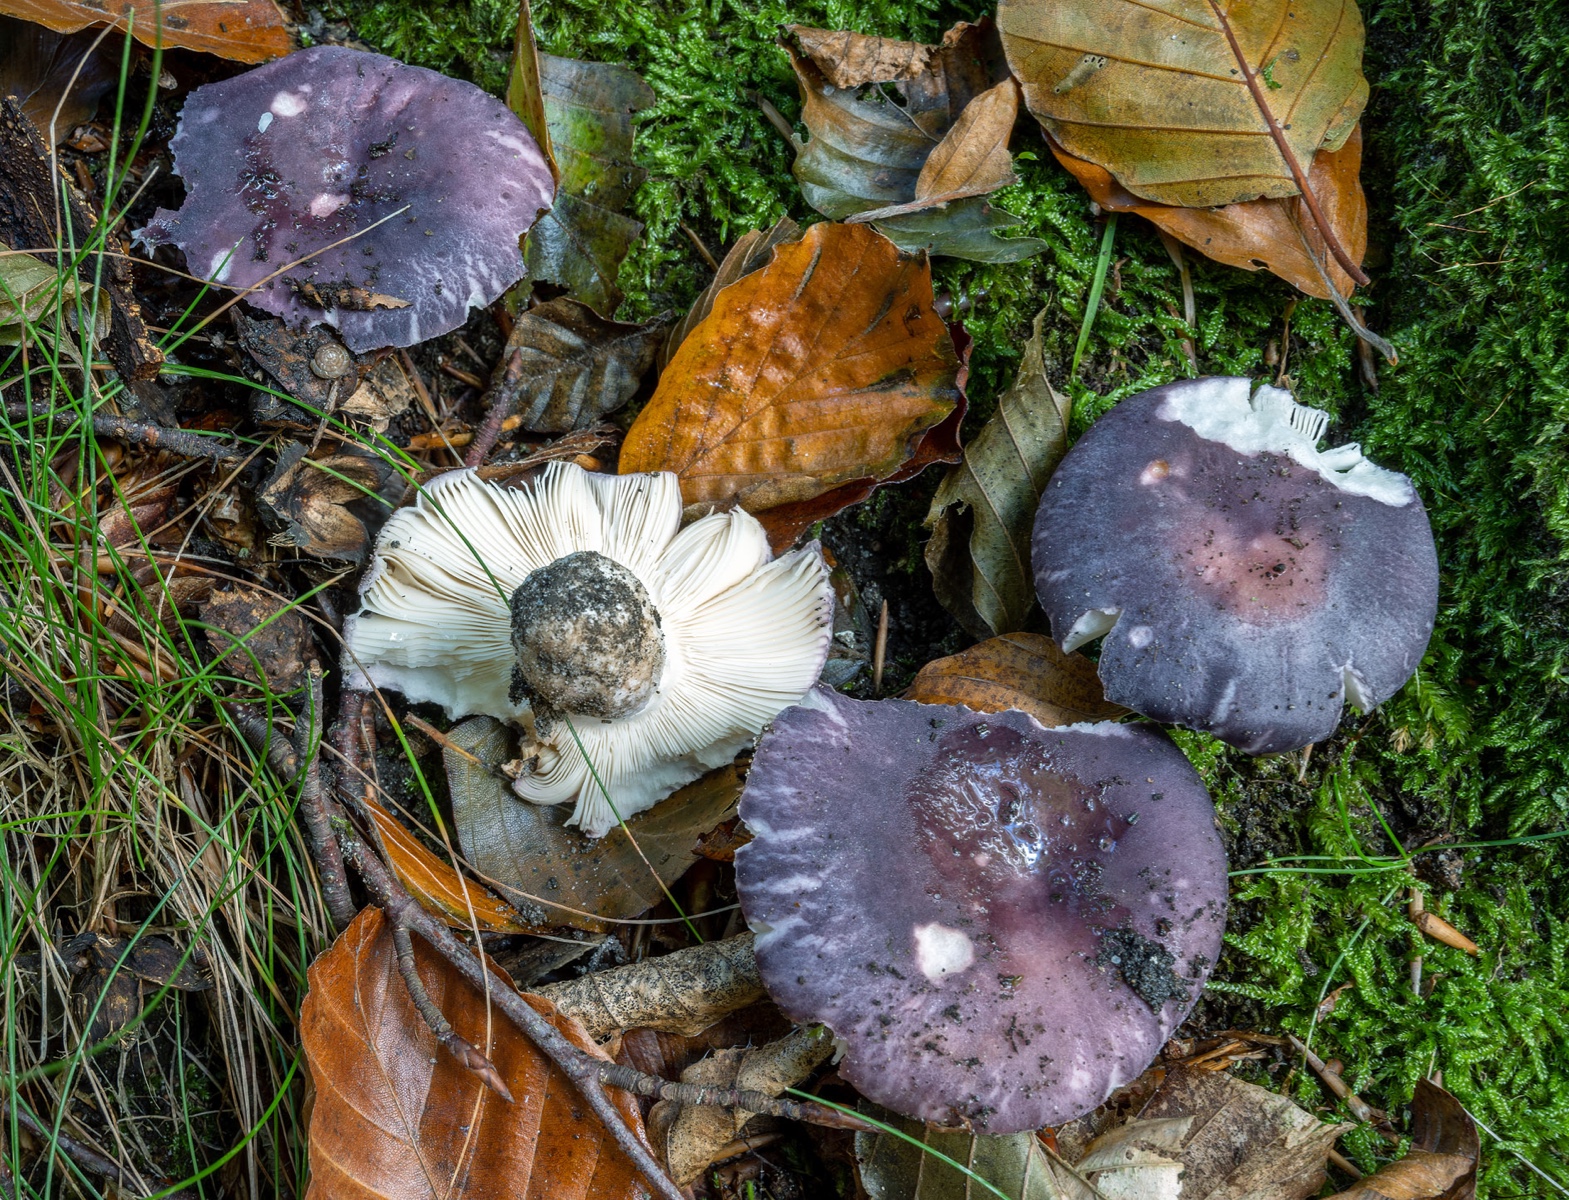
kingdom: Fungi
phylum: Basidiomycota
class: Agaricomycetes
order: Russulales
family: Russulaceae
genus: Russula
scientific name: Russula
